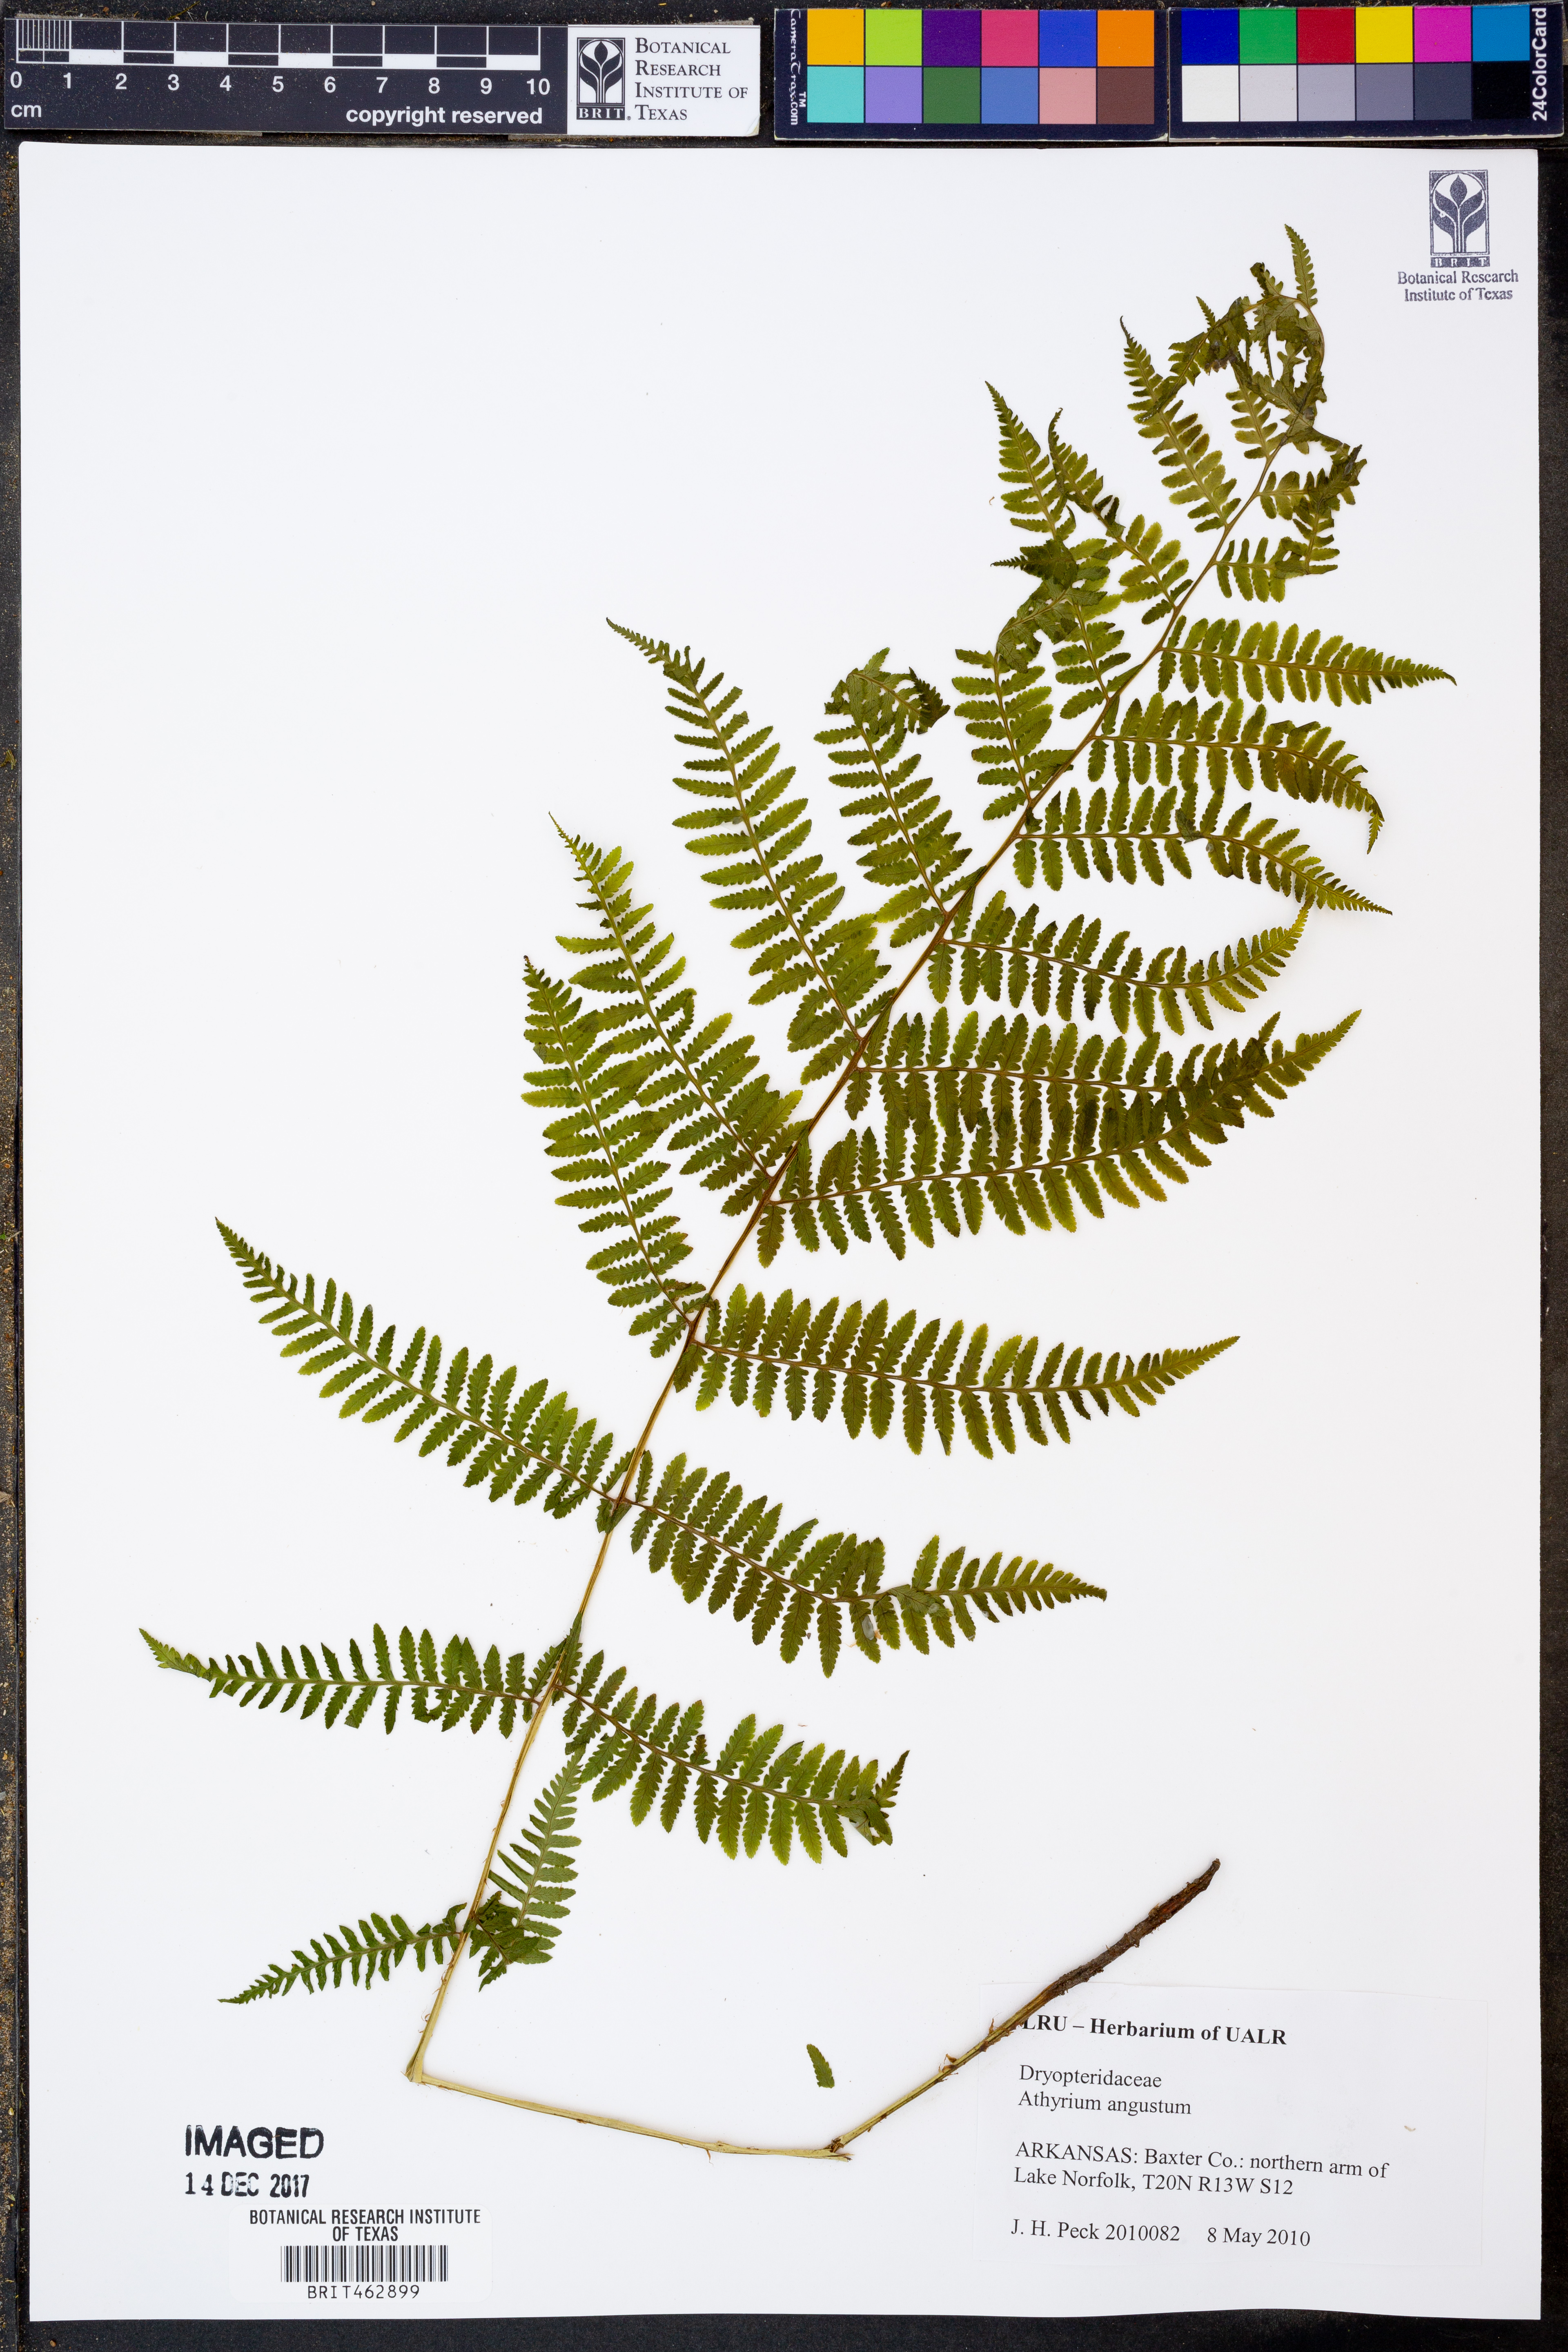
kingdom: Plantae
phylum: Tracheophyta
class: Polypodiopsida
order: Polypodiales
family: Athyriaceae
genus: Athyrium
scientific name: Athyrium angustum
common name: Northern lady fern
